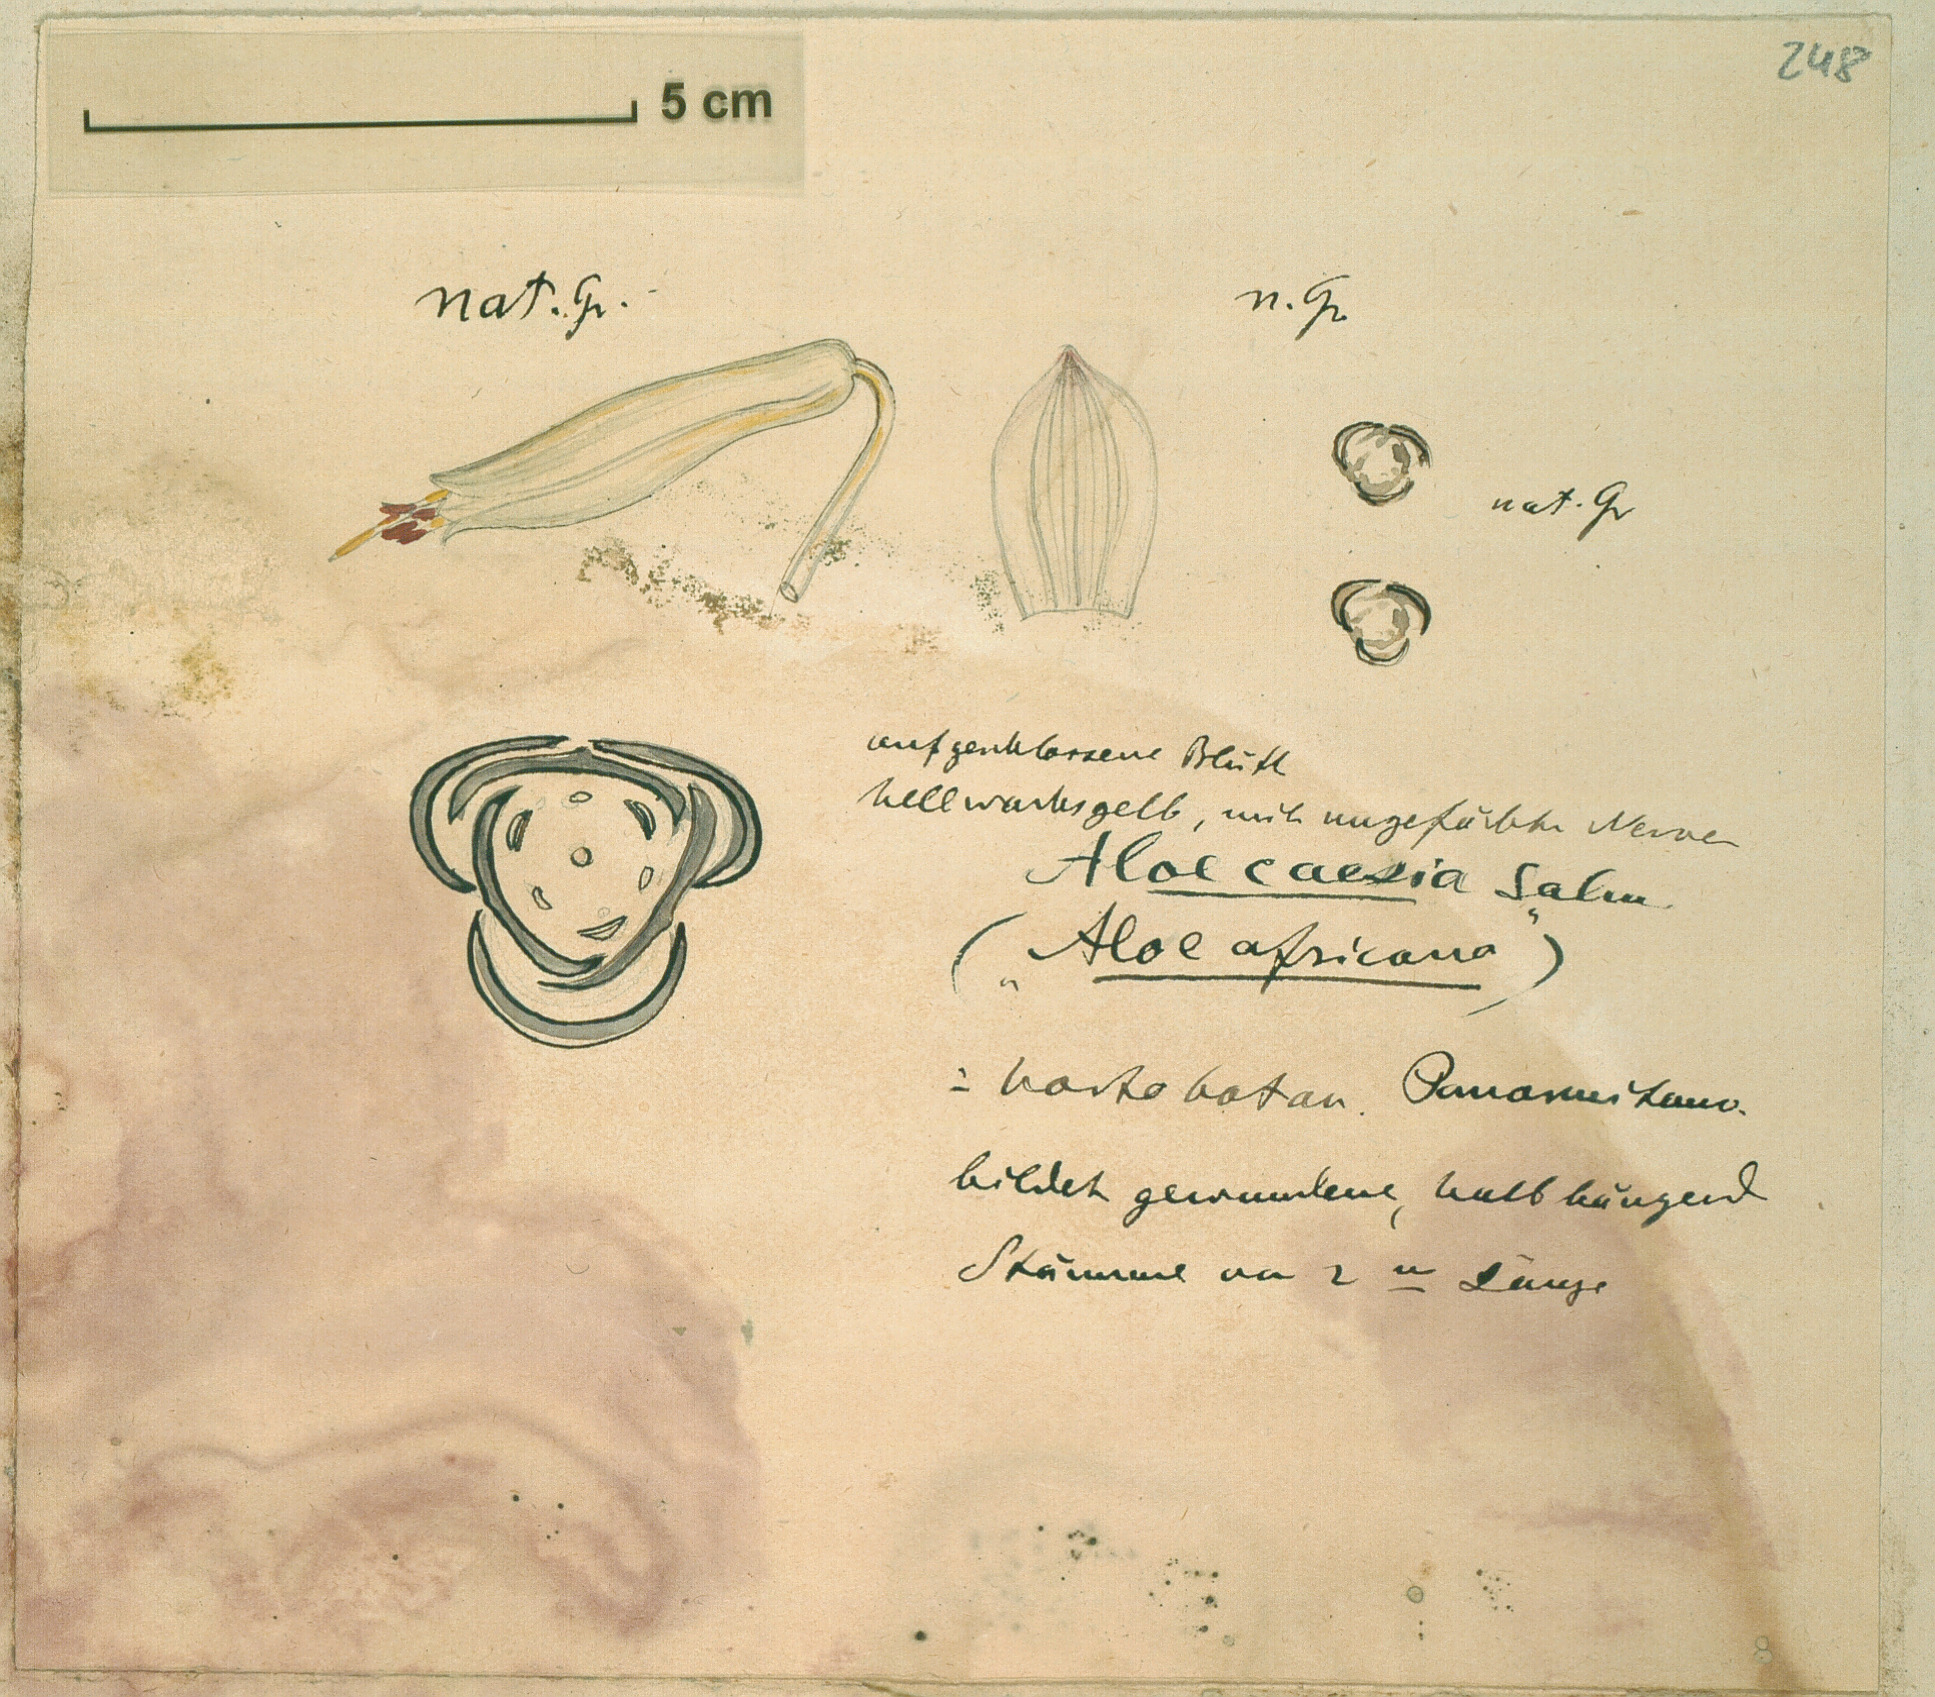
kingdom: Plantae
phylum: Tracheophyta
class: Liliopsida
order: Asparagales
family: Asphodelaceae
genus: Aloe
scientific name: Aloe caesia
